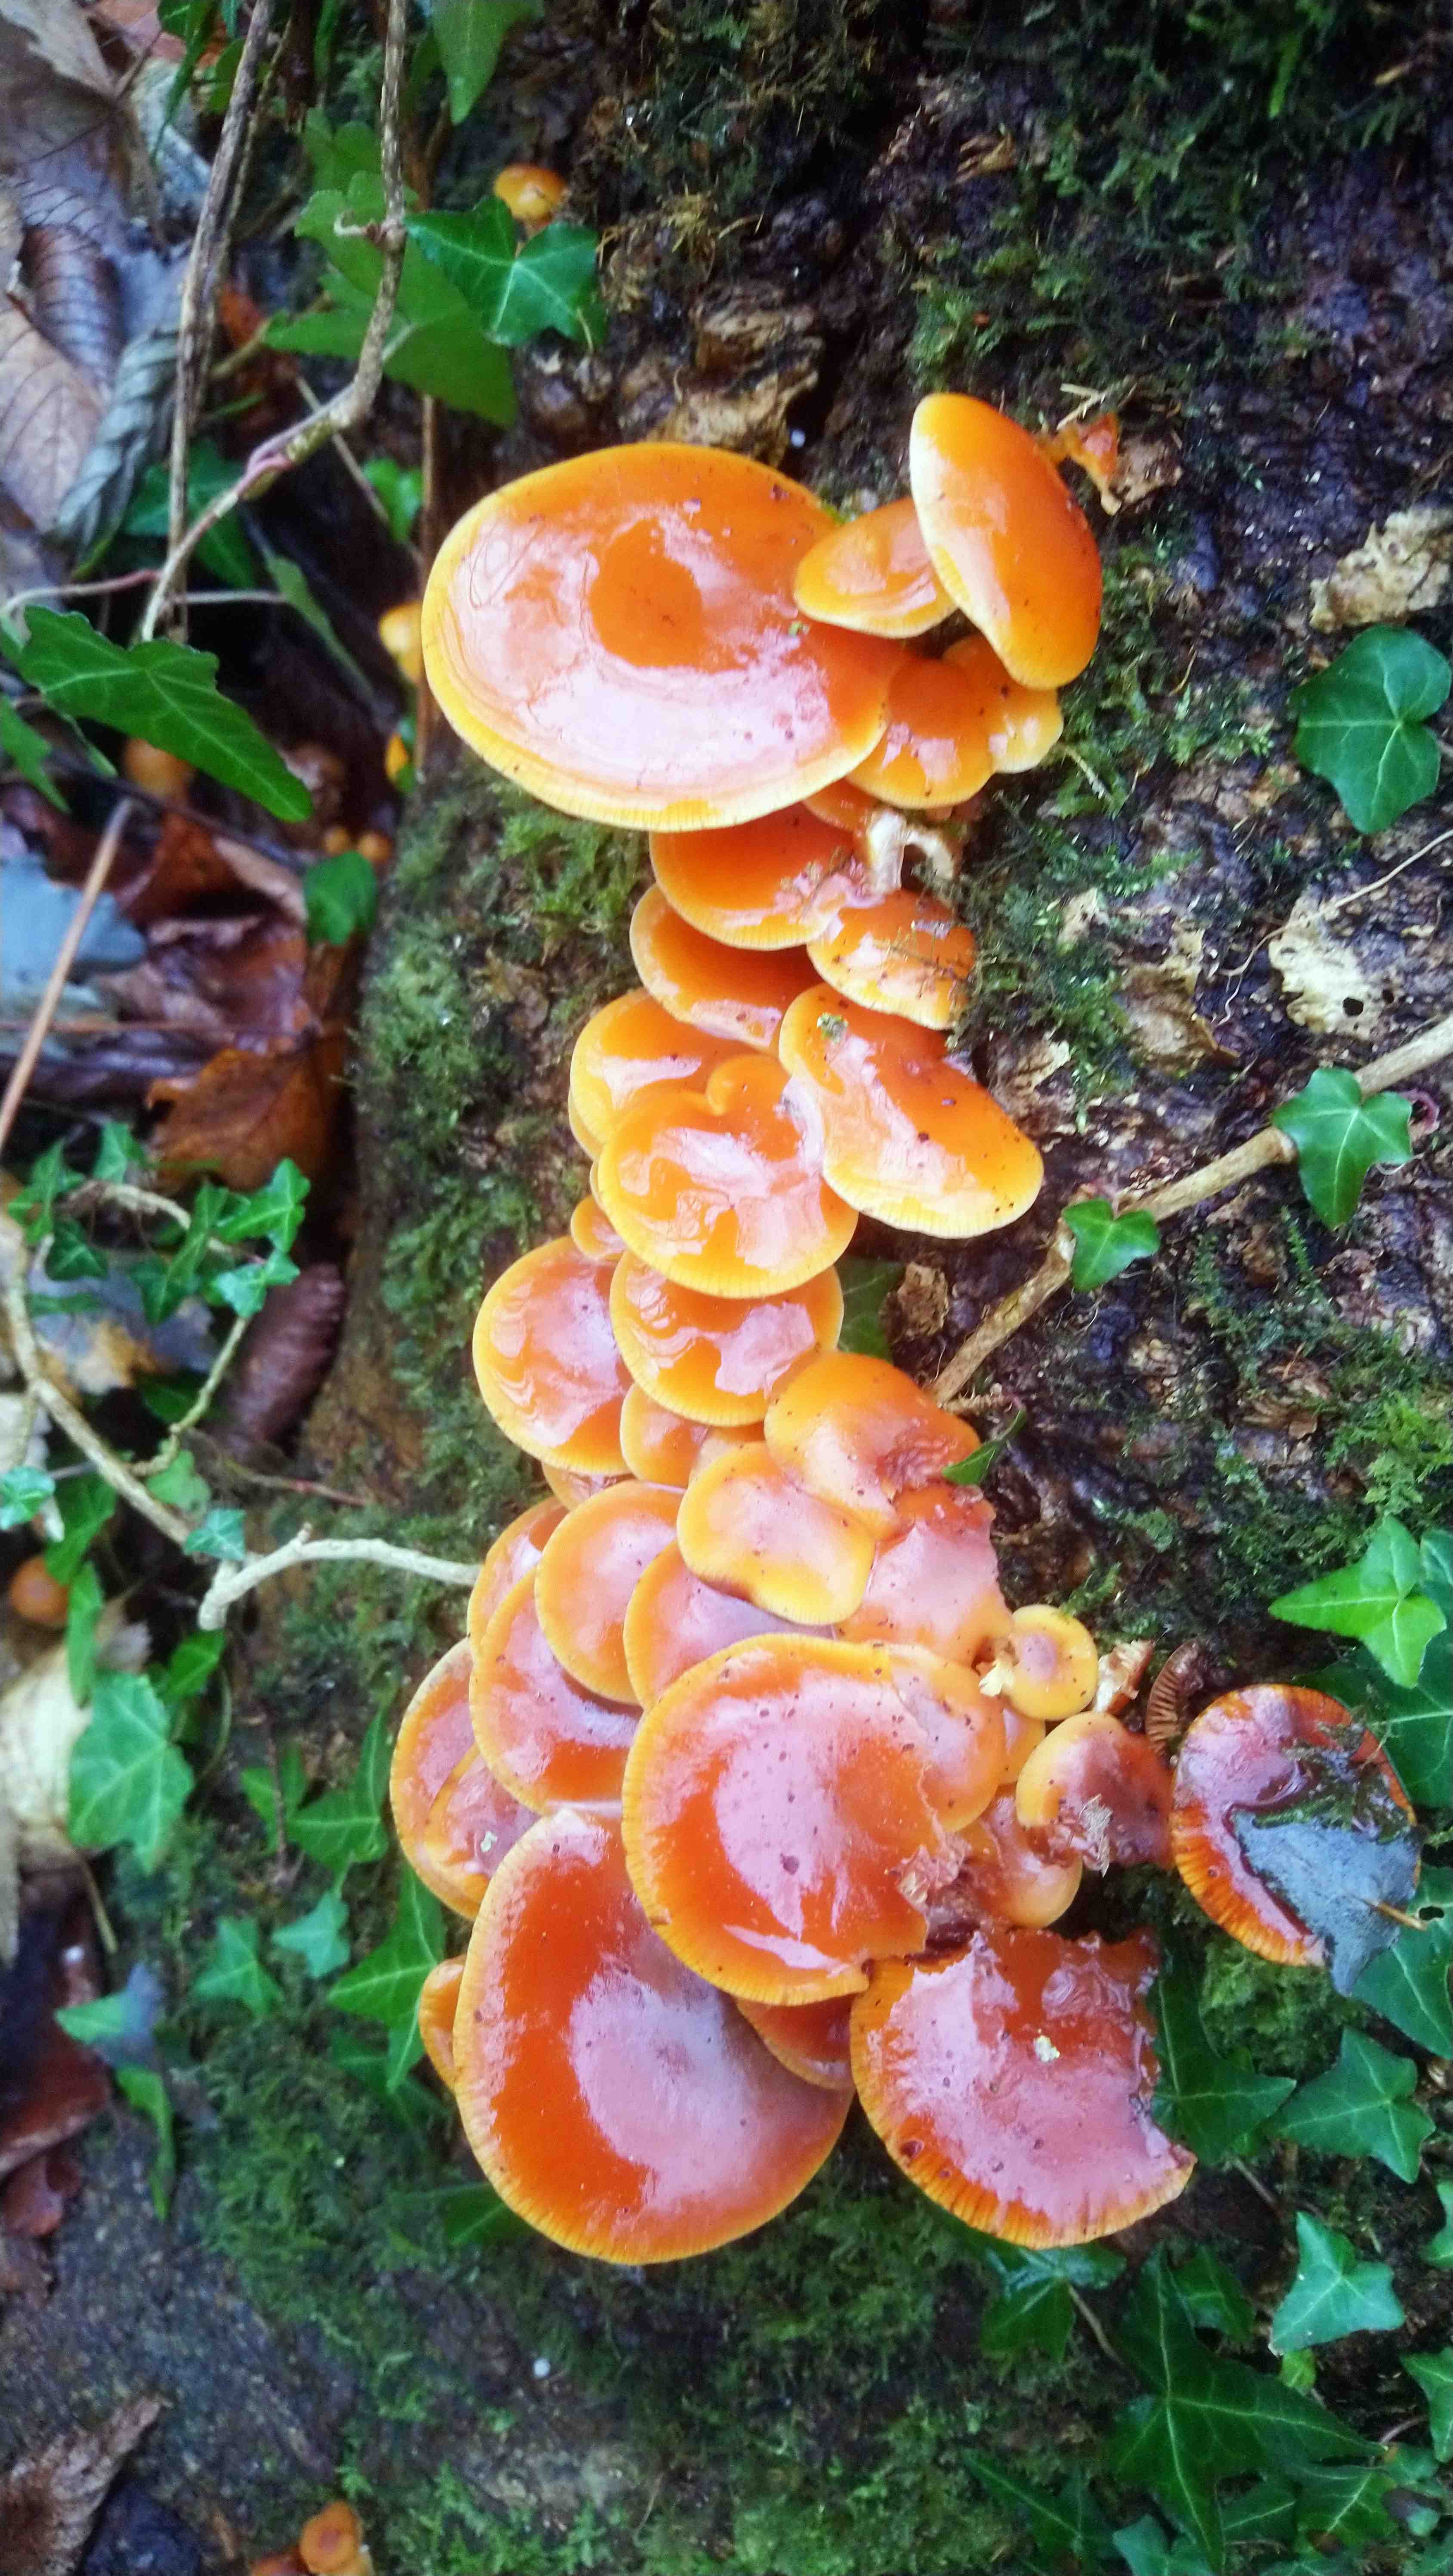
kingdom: Fungi
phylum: Basidiomycota
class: Agaricomycetes
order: Agaricales
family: Physalacriaceae
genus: Flammulina
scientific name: Flammulina velutipes
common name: gul fløjlsfod
